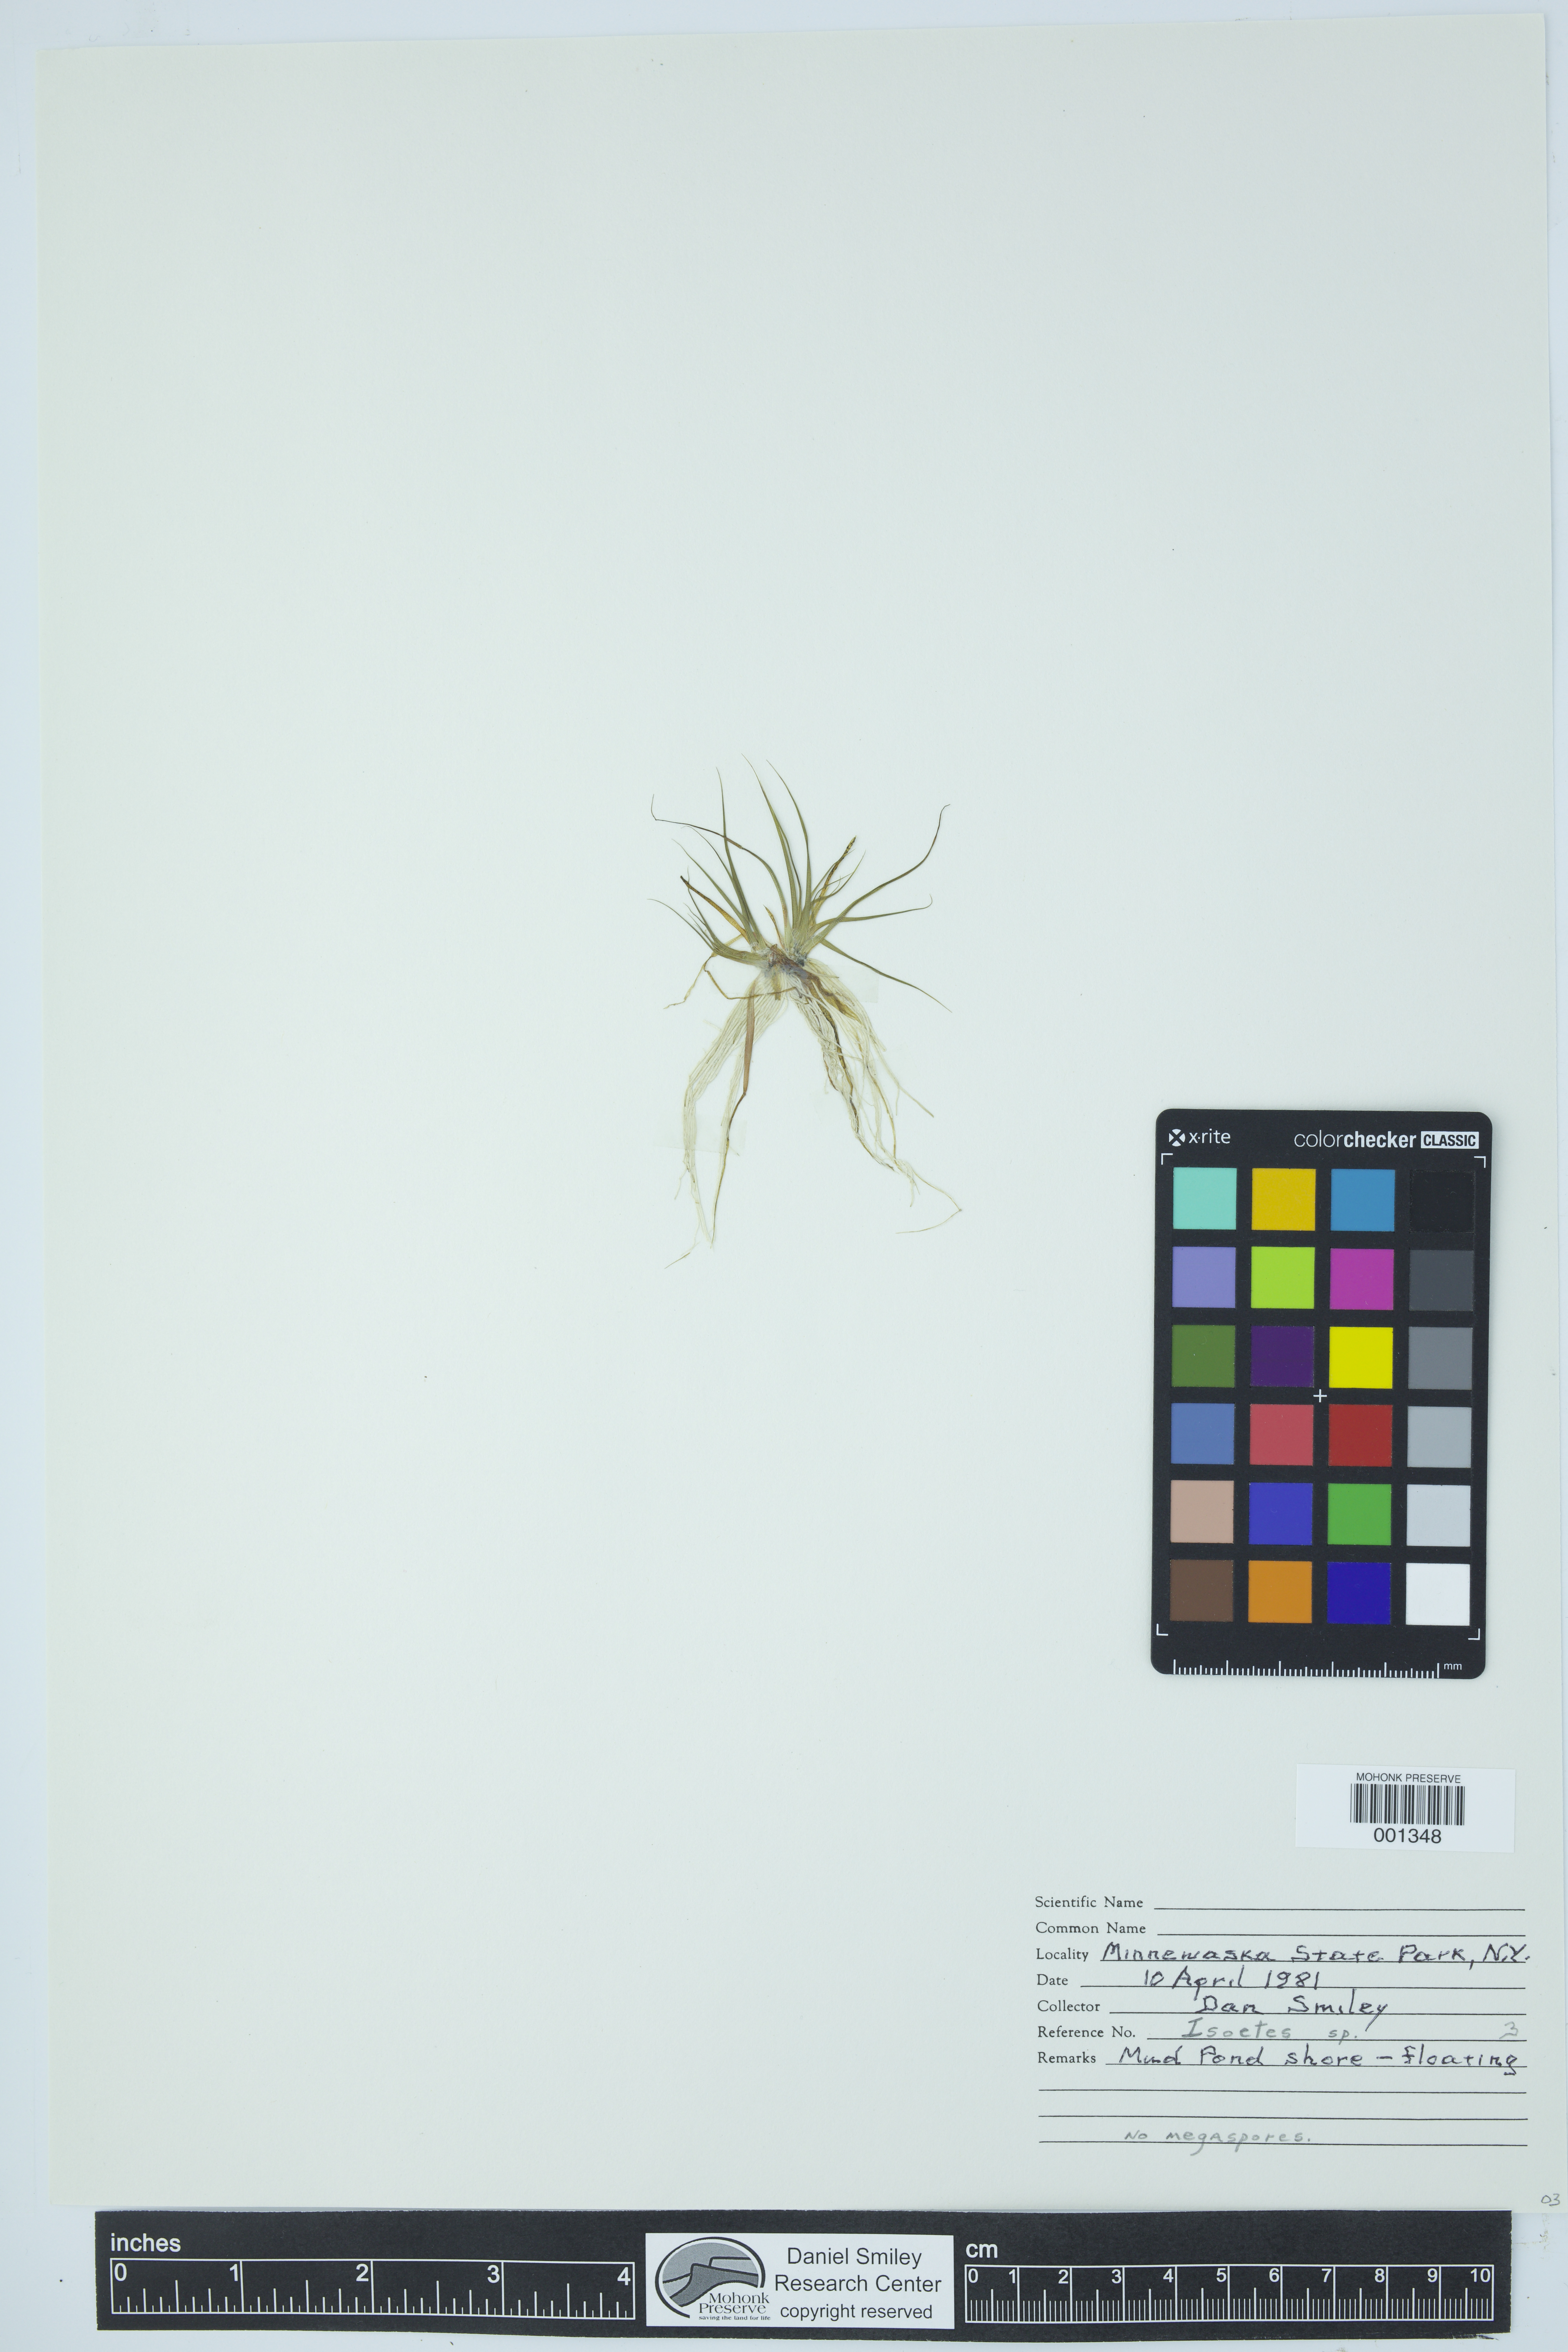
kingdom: Plantae
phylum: Tracheophyta
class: Lycopodiopsida
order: Isoetales
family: Isoetaceae
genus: Isoetes
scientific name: Isoetes
